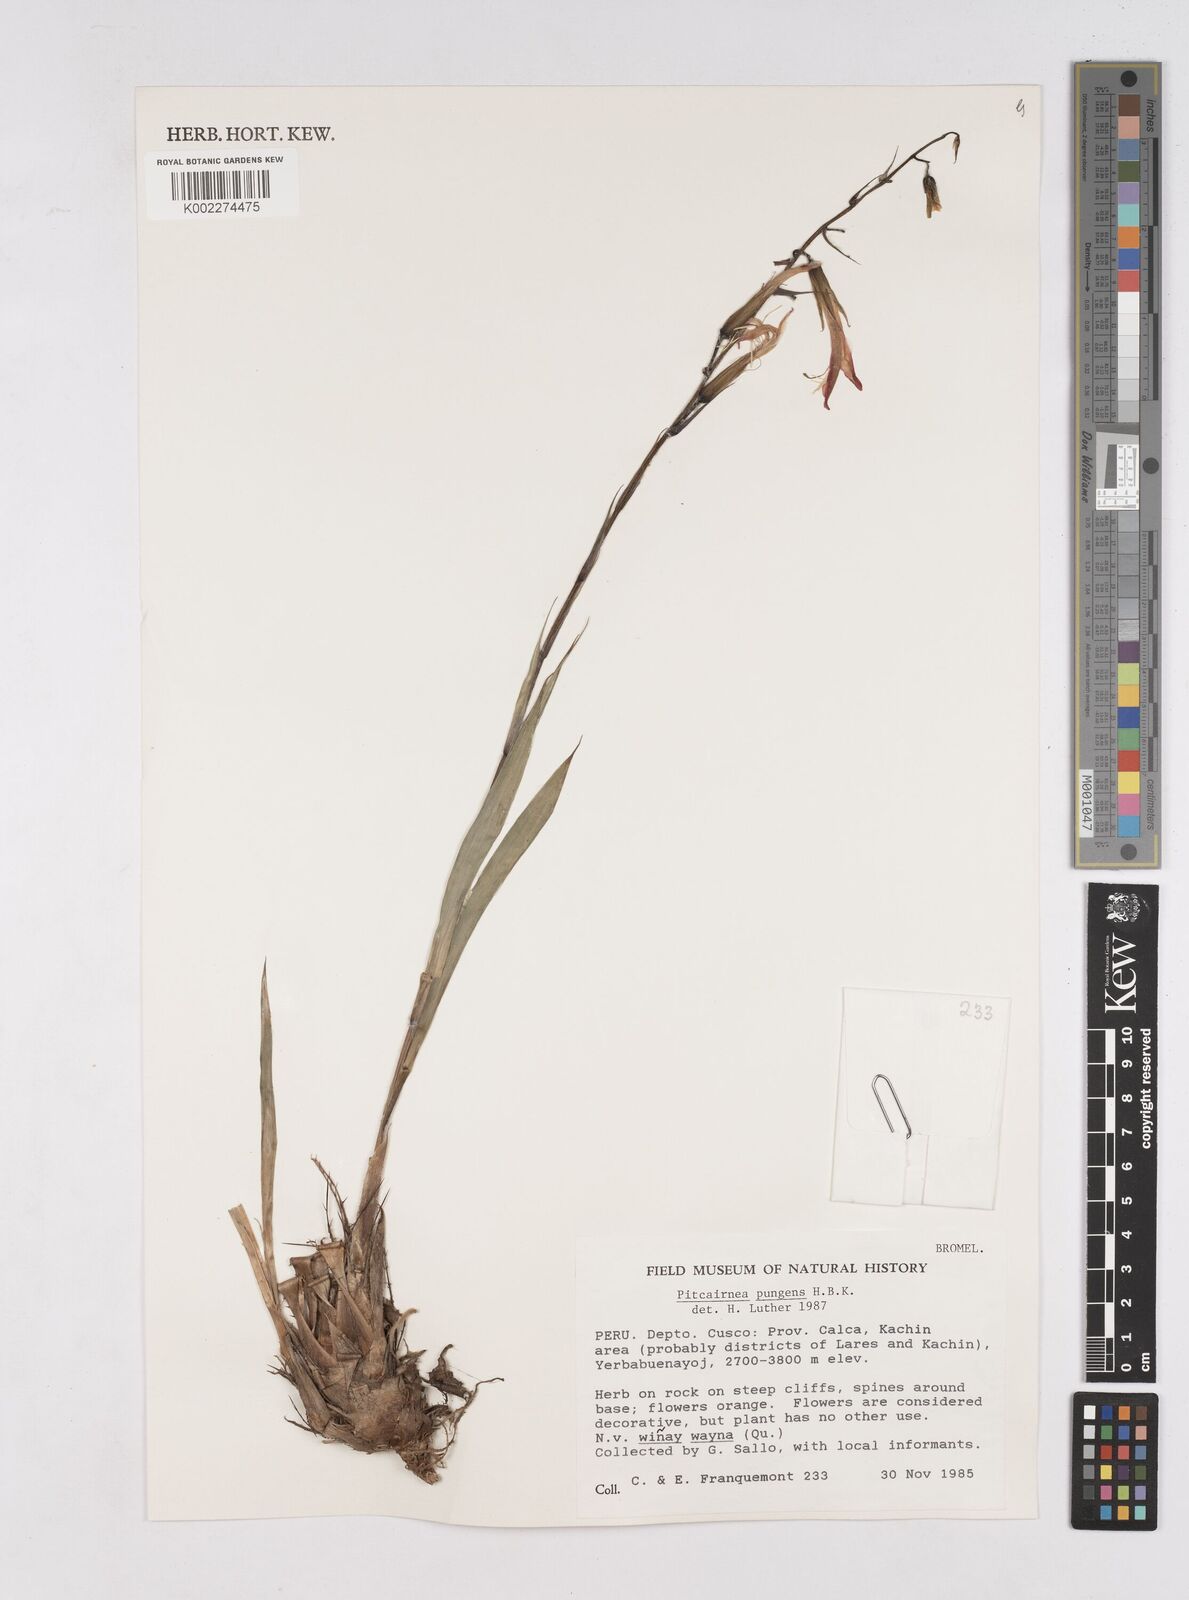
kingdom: Plantae
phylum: Tracheophyta
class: Liliopsida
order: Poales
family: Bromeliaceae
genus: Pitcairnia
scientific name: Pitcairnia pungens
